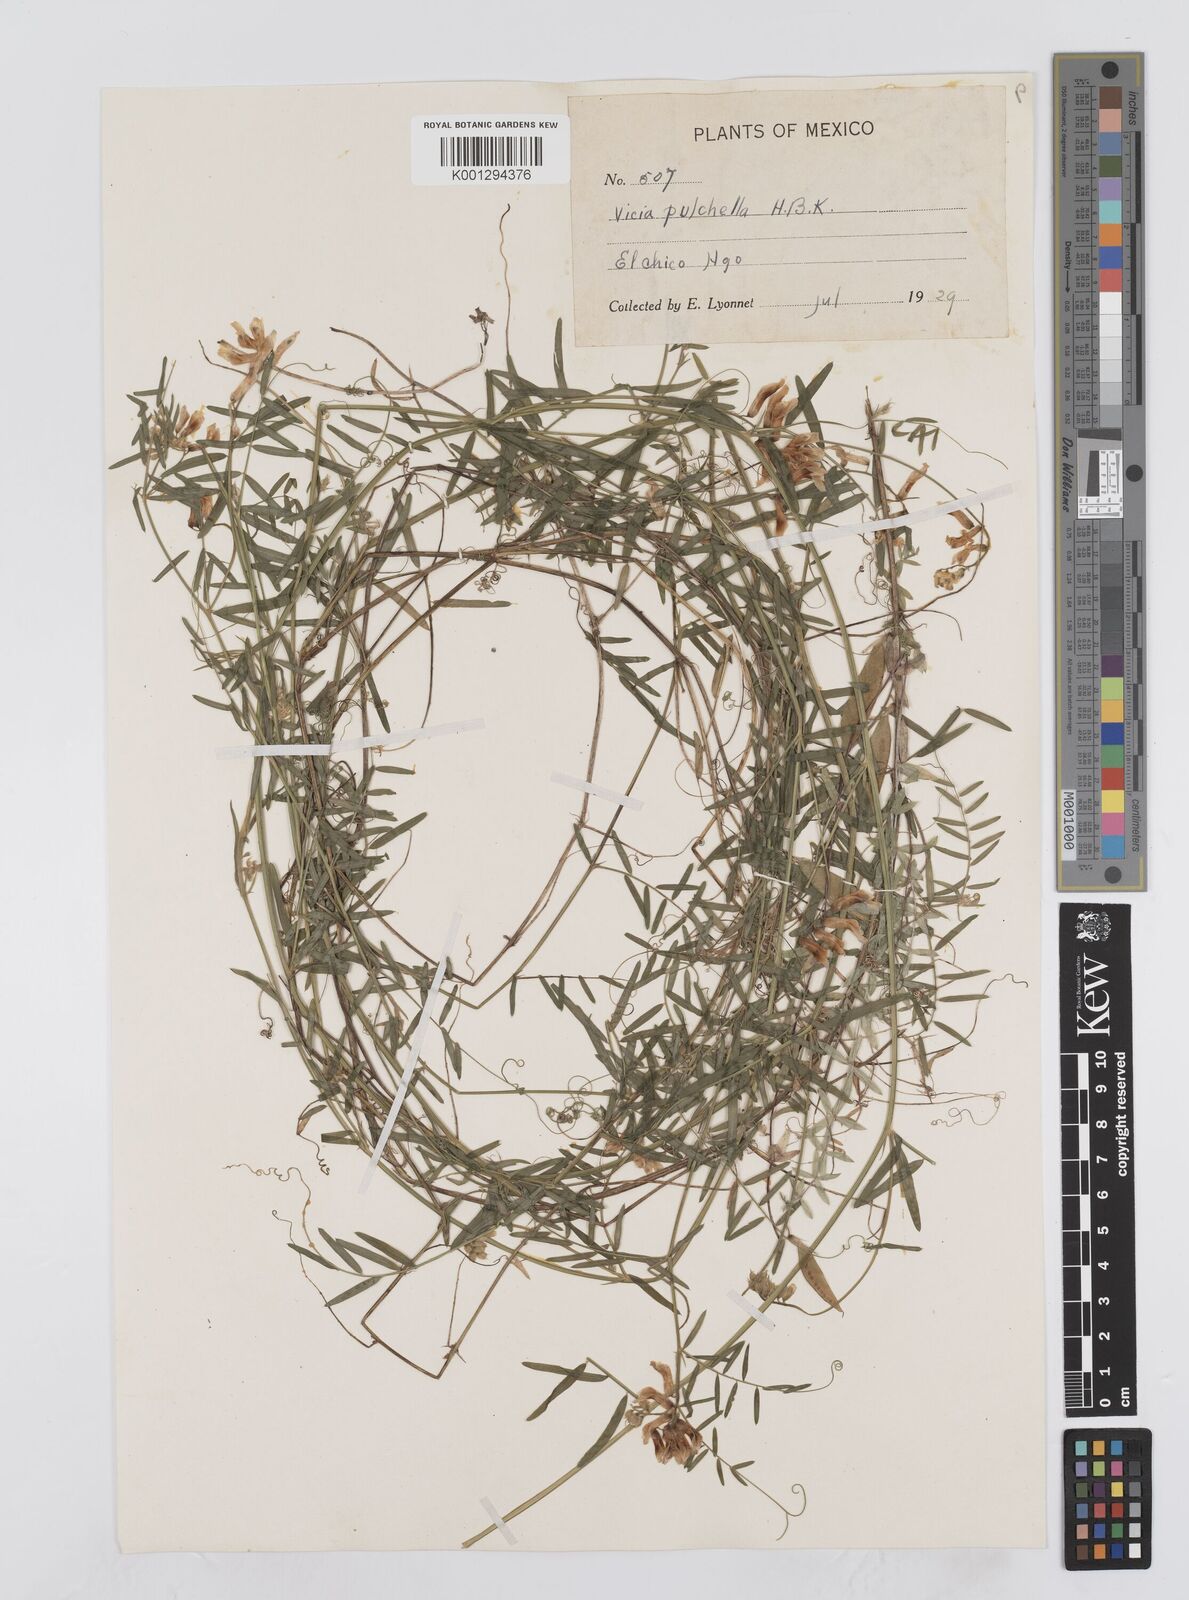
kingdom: Plantae
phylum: Tracheophyta
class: Magnoliopsida
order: Fabales
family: Fabaceae
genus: Vicia
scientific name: Vicia pulchella
